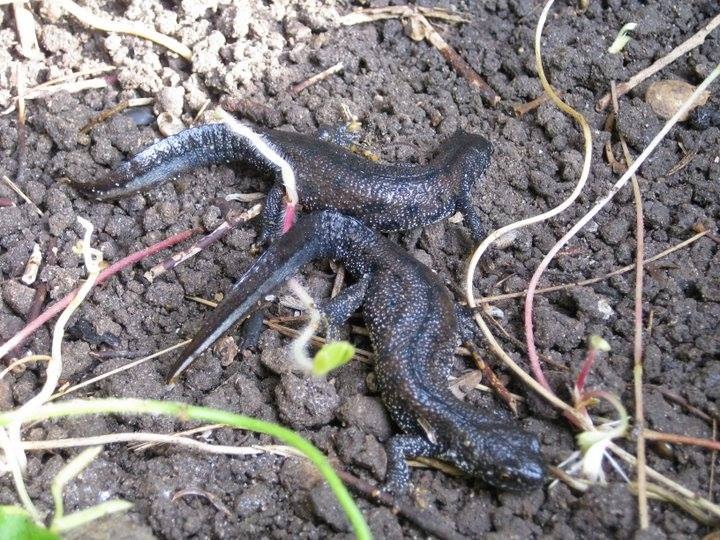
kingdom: Animalia
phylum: Chordata
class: Amphibia
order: Caudata
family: Salamandridae
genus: Triturus
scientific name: Triturus cristatus
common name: Stor vandsalamander
